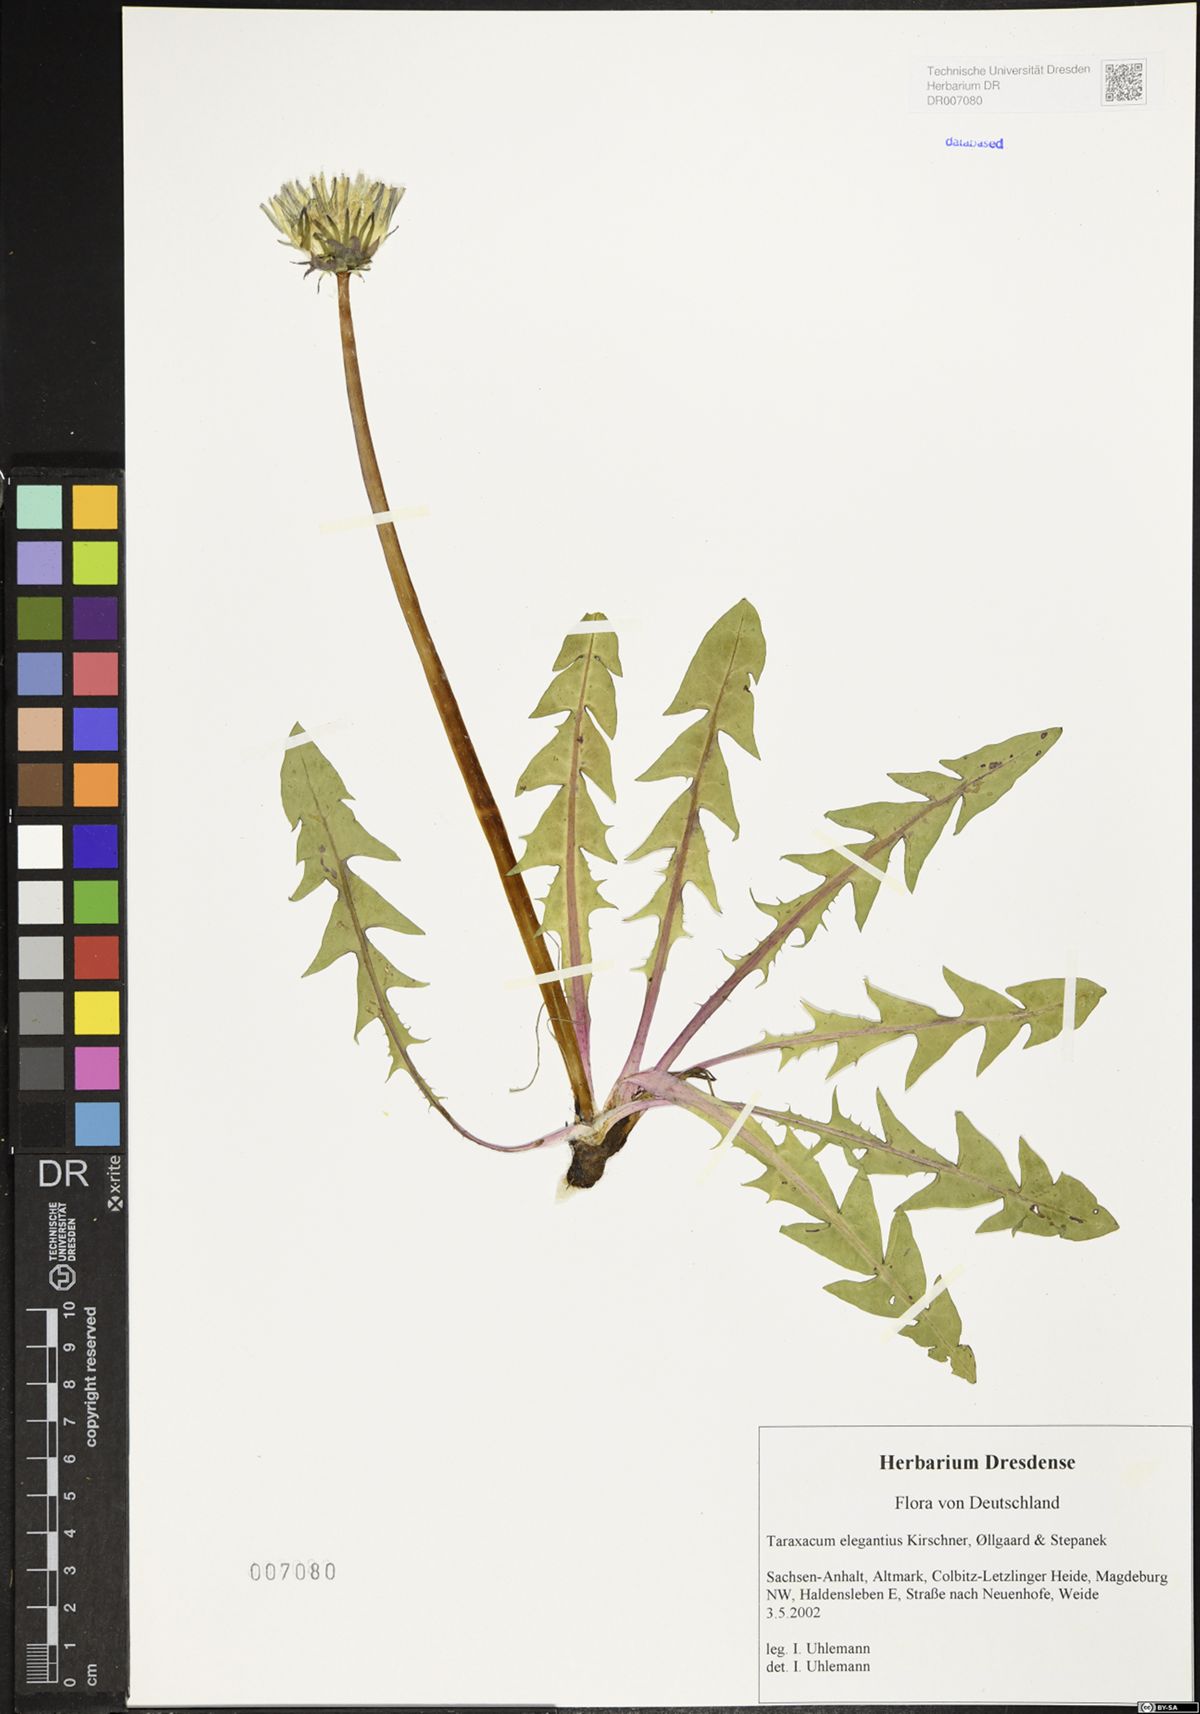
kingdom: Plantae
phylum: Tracheophyta
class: Magnoliopsida
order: Asterales
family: Asteraceae
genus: Taraxacum
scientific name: Taraxacum elegantius
